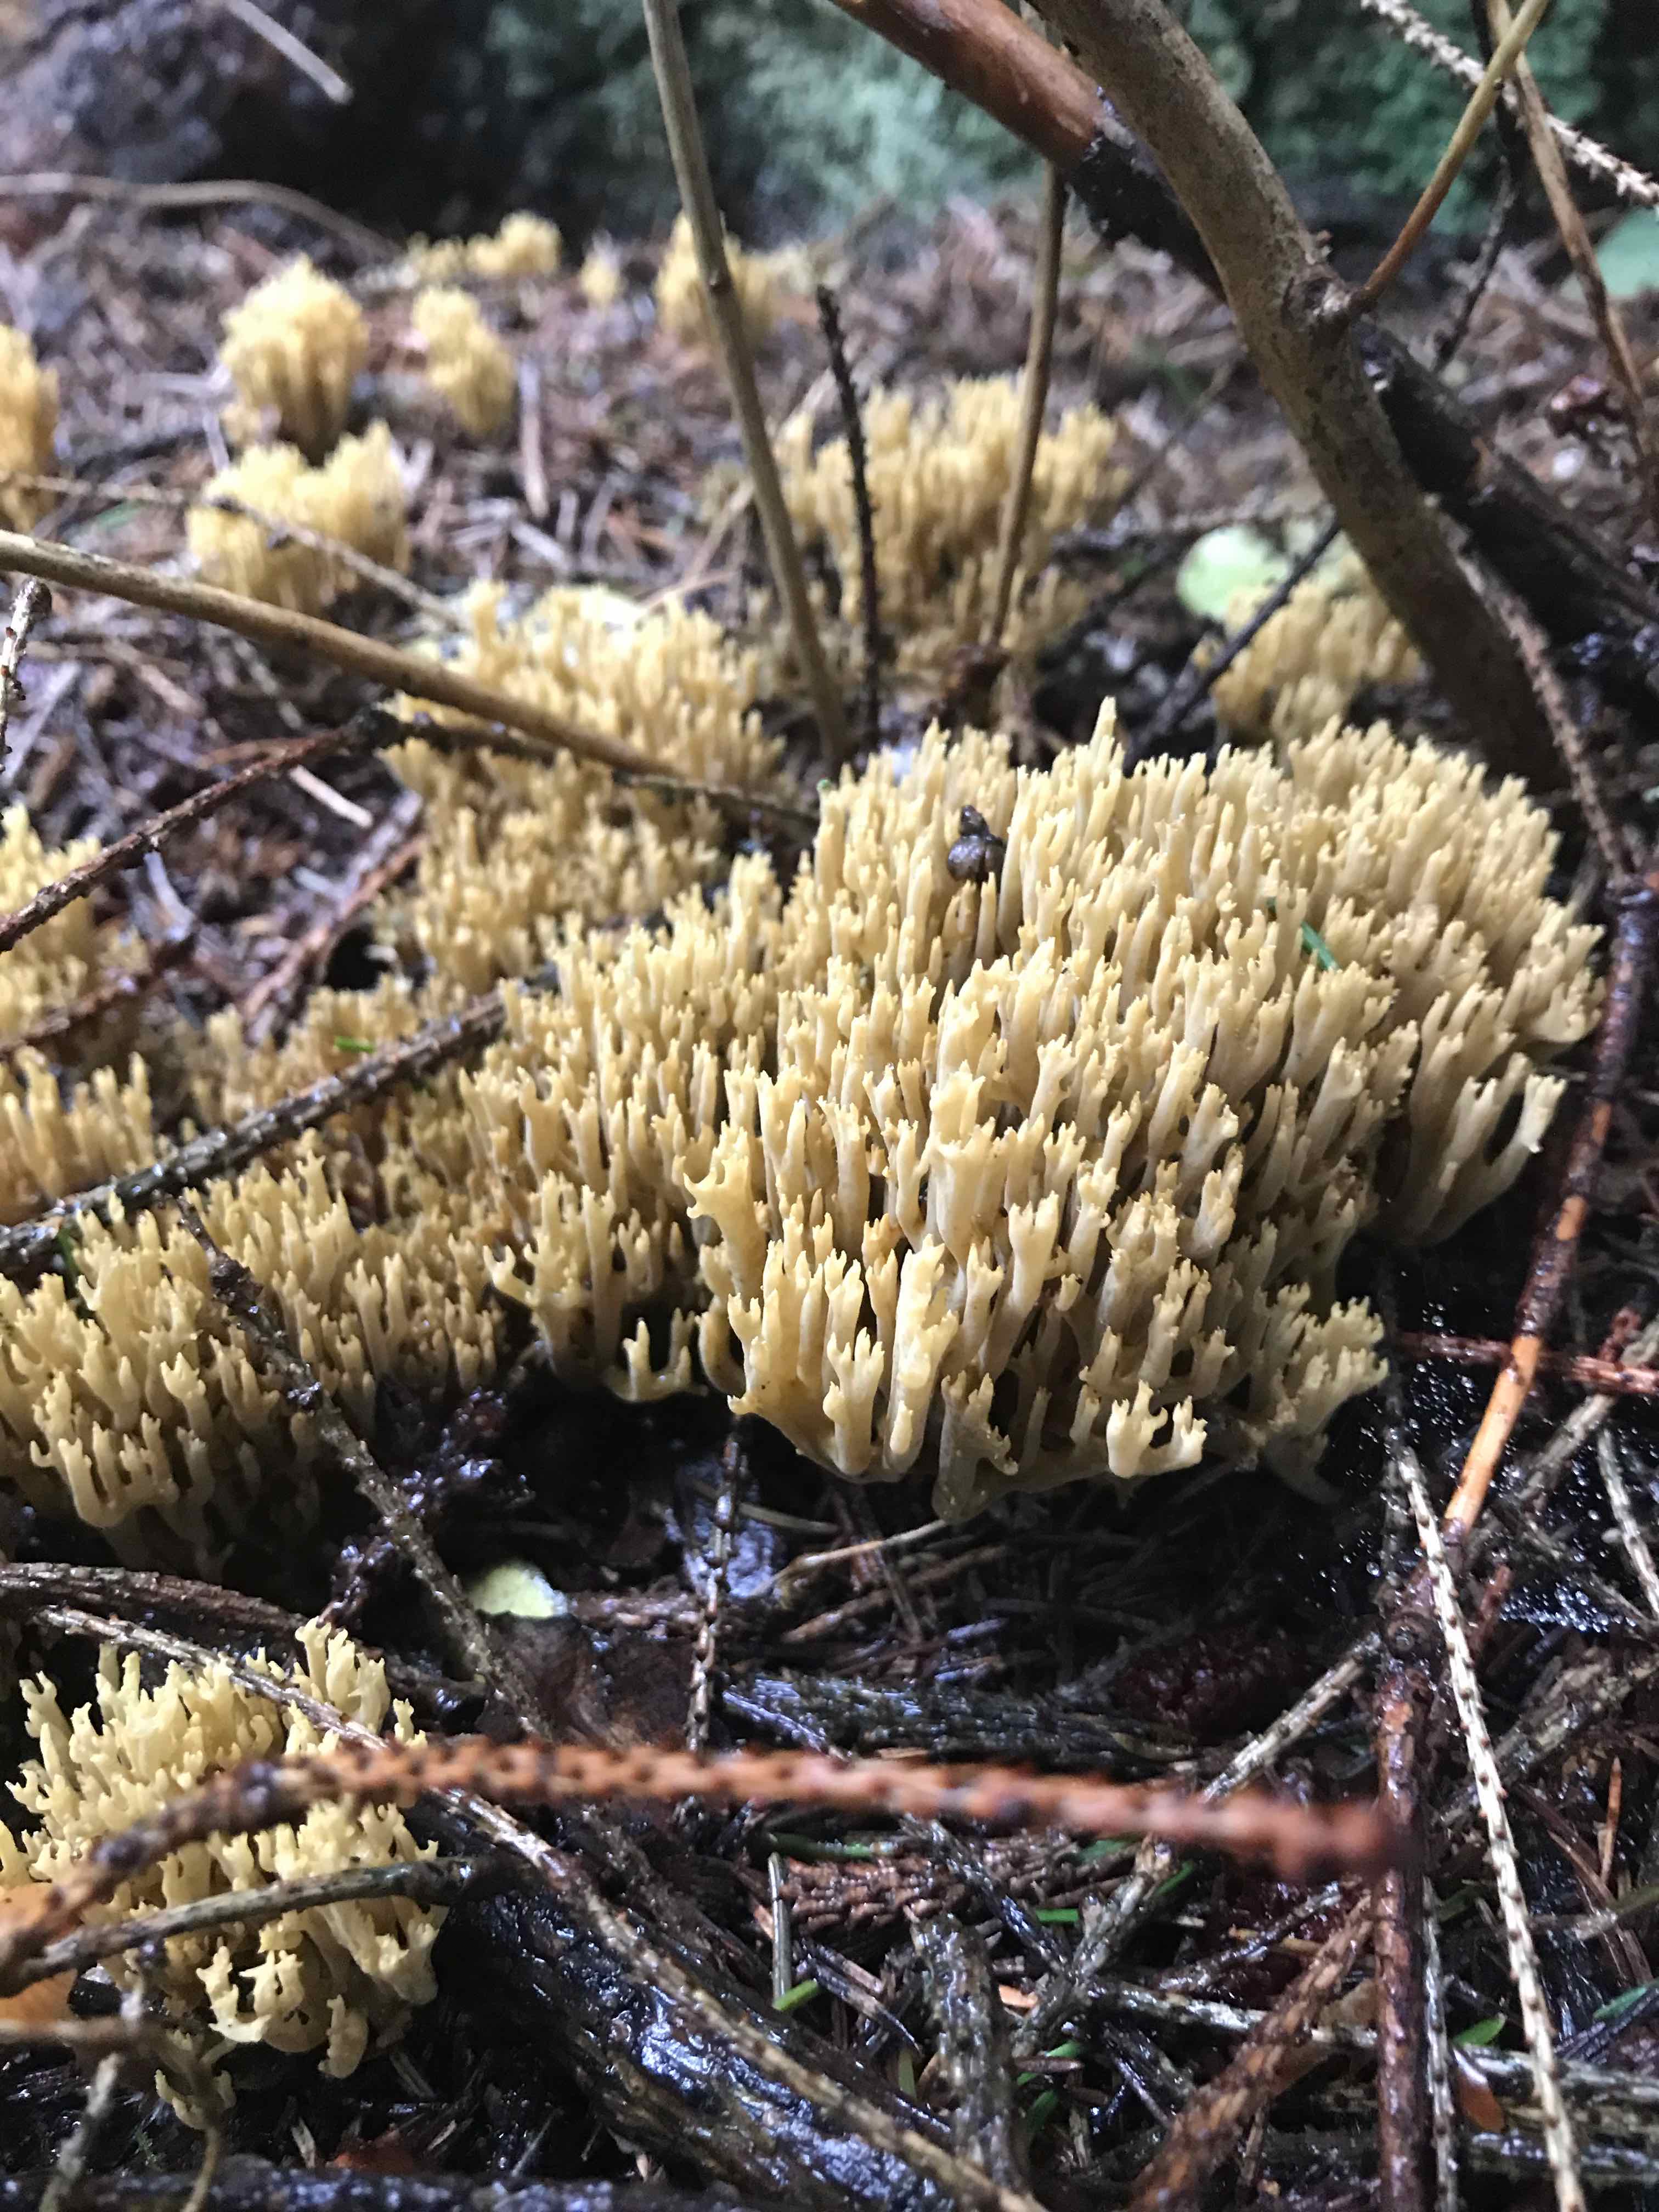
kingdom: Fungi
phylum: Basidiomycota
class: Agaricomycetes
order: Gomphales
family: Gomphaceae
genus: Phaeoclavulina
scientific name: Phaeoclavulina eumorpha
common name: gran-koralsvamp
